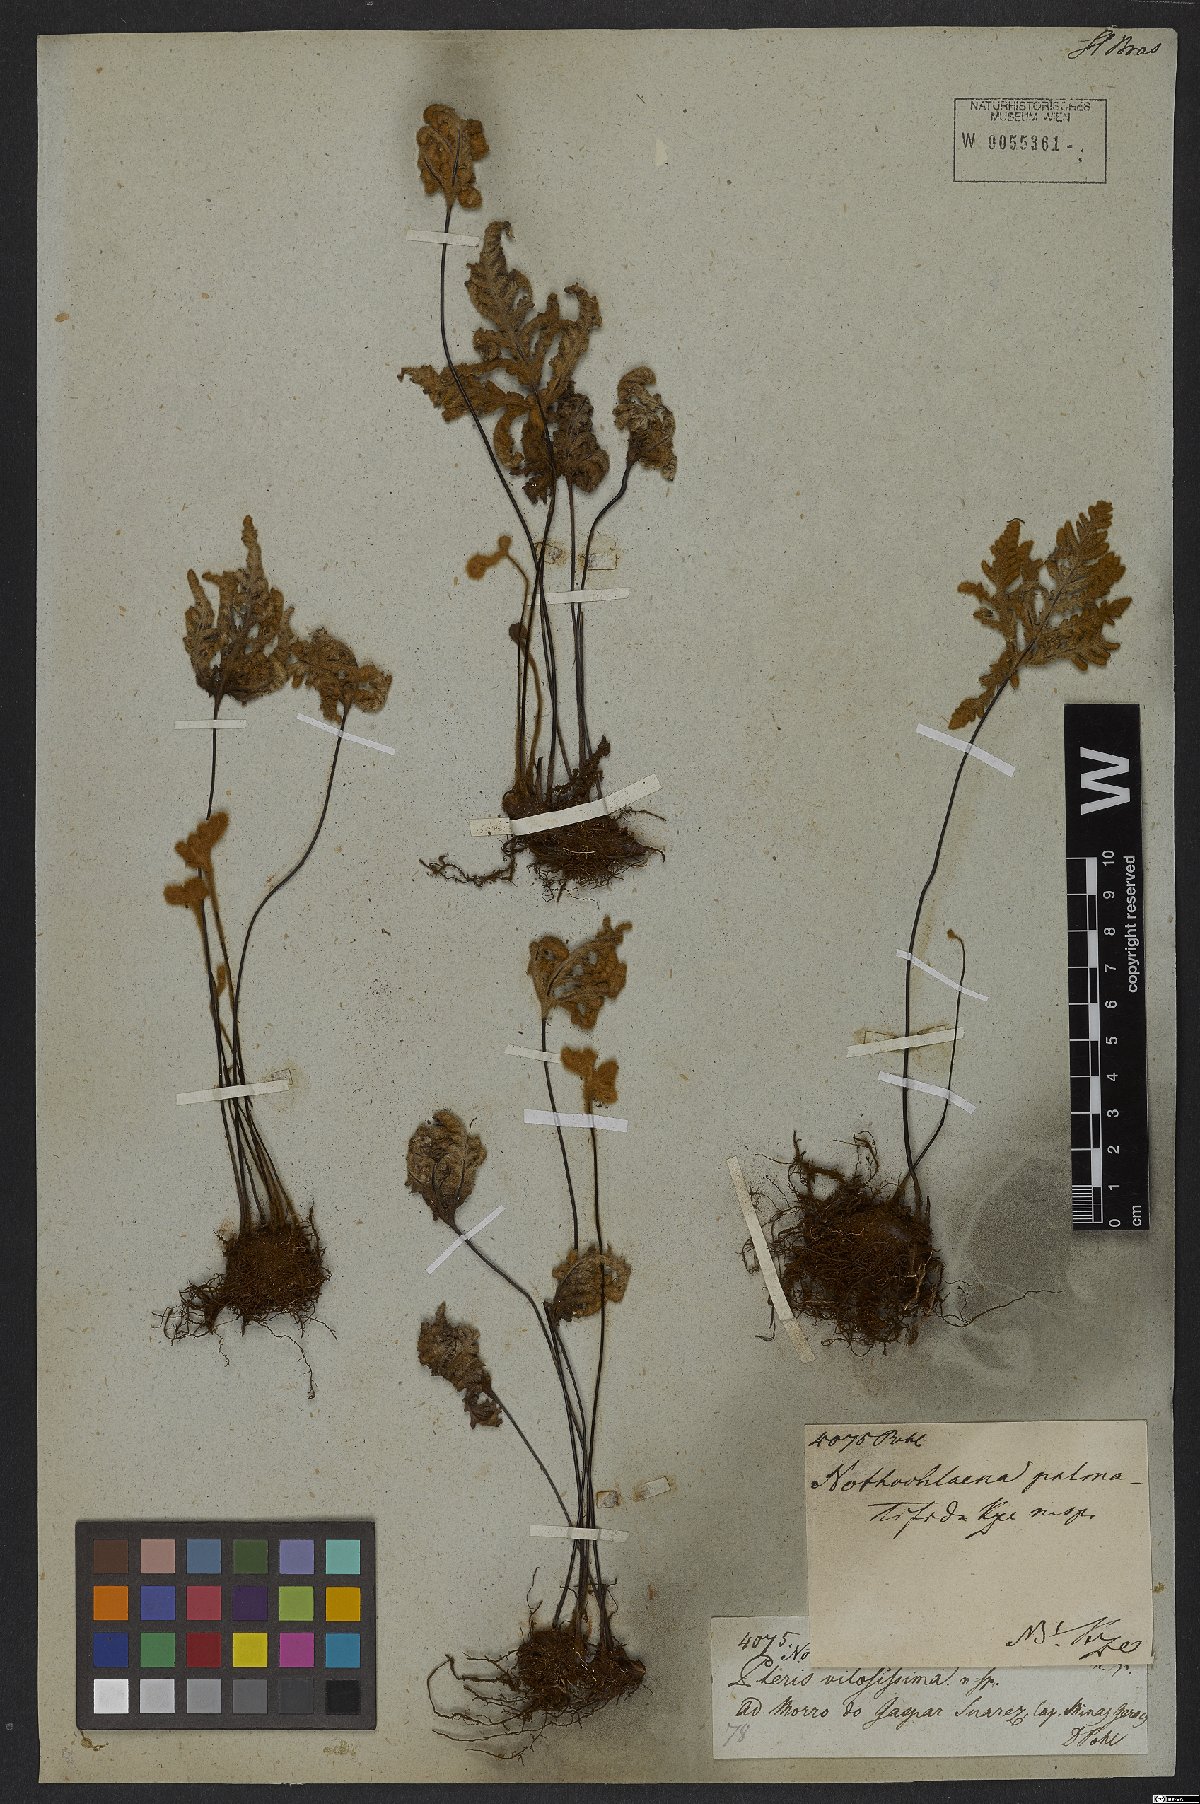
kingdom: Plantae
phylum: Tracheophyta
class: Polypodiopsida
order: Polypodiales
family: Pteridaceae
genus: Mineirella
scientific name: Mineirella eriophora
